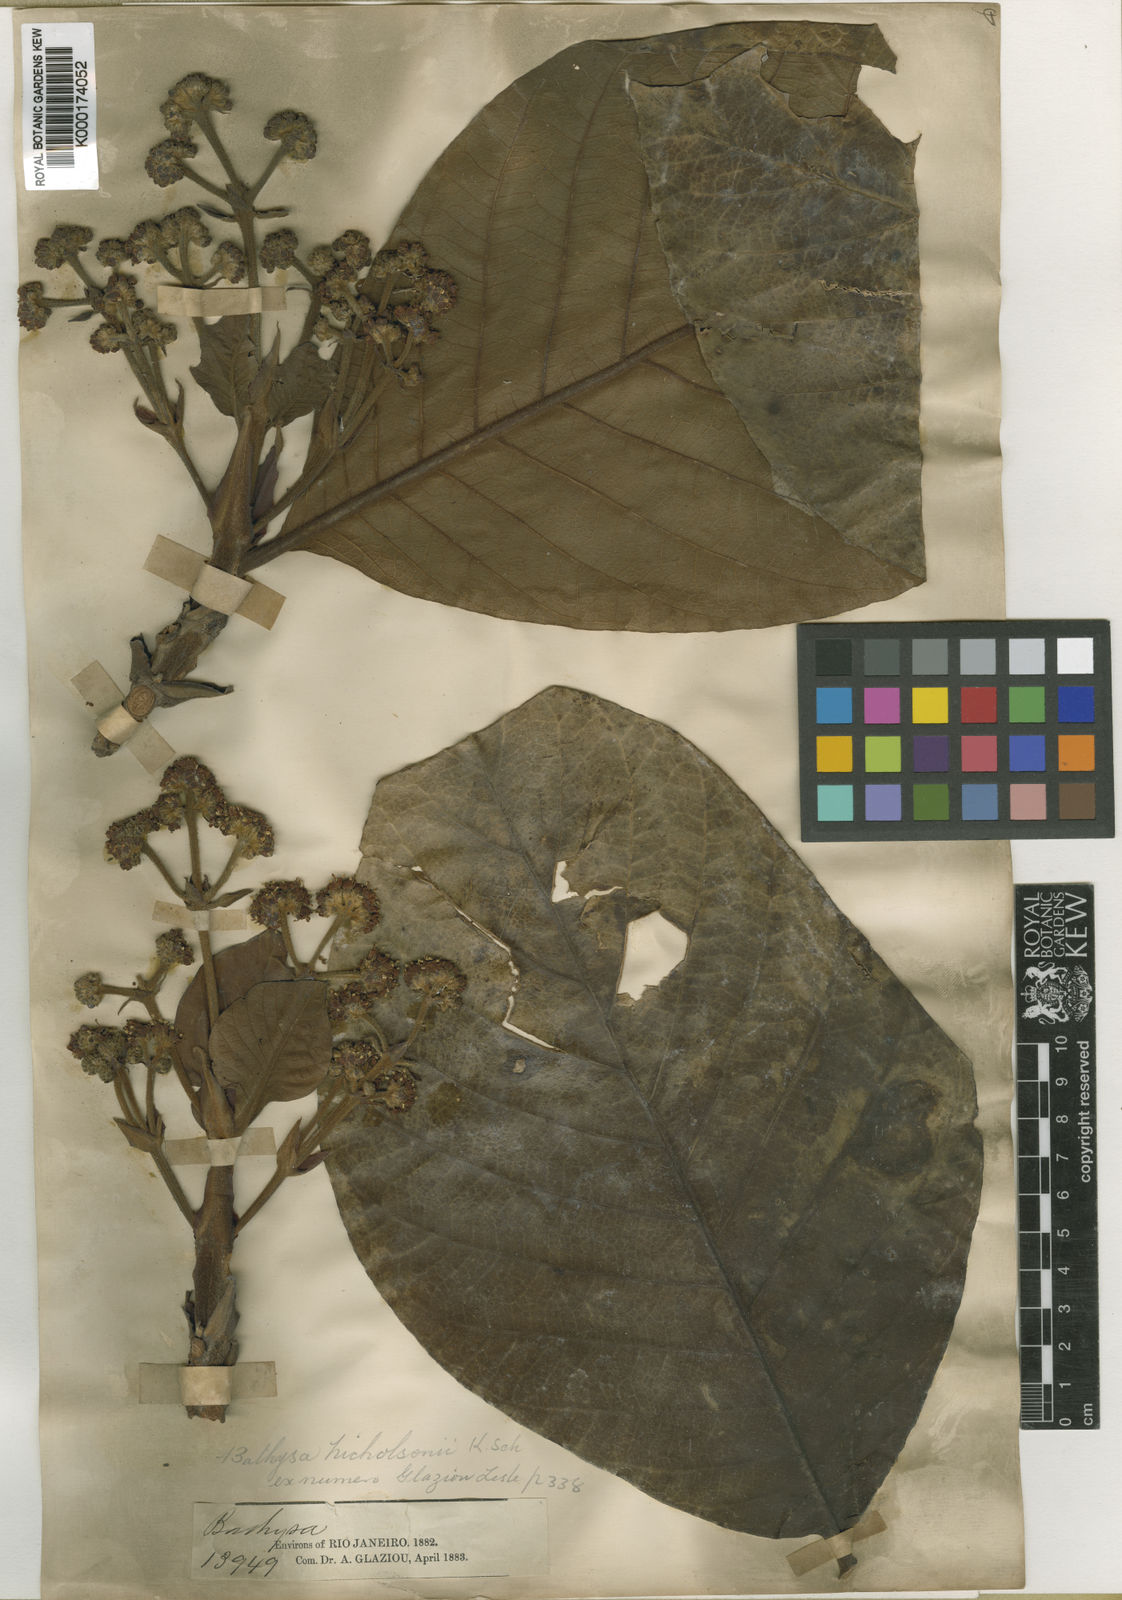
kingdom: Plantae
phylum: Tracheophyta
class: Magnoliopsida
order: Gentianales
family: Rubiaceae
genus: Bathysa
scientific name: Bathysa nicholsonii
